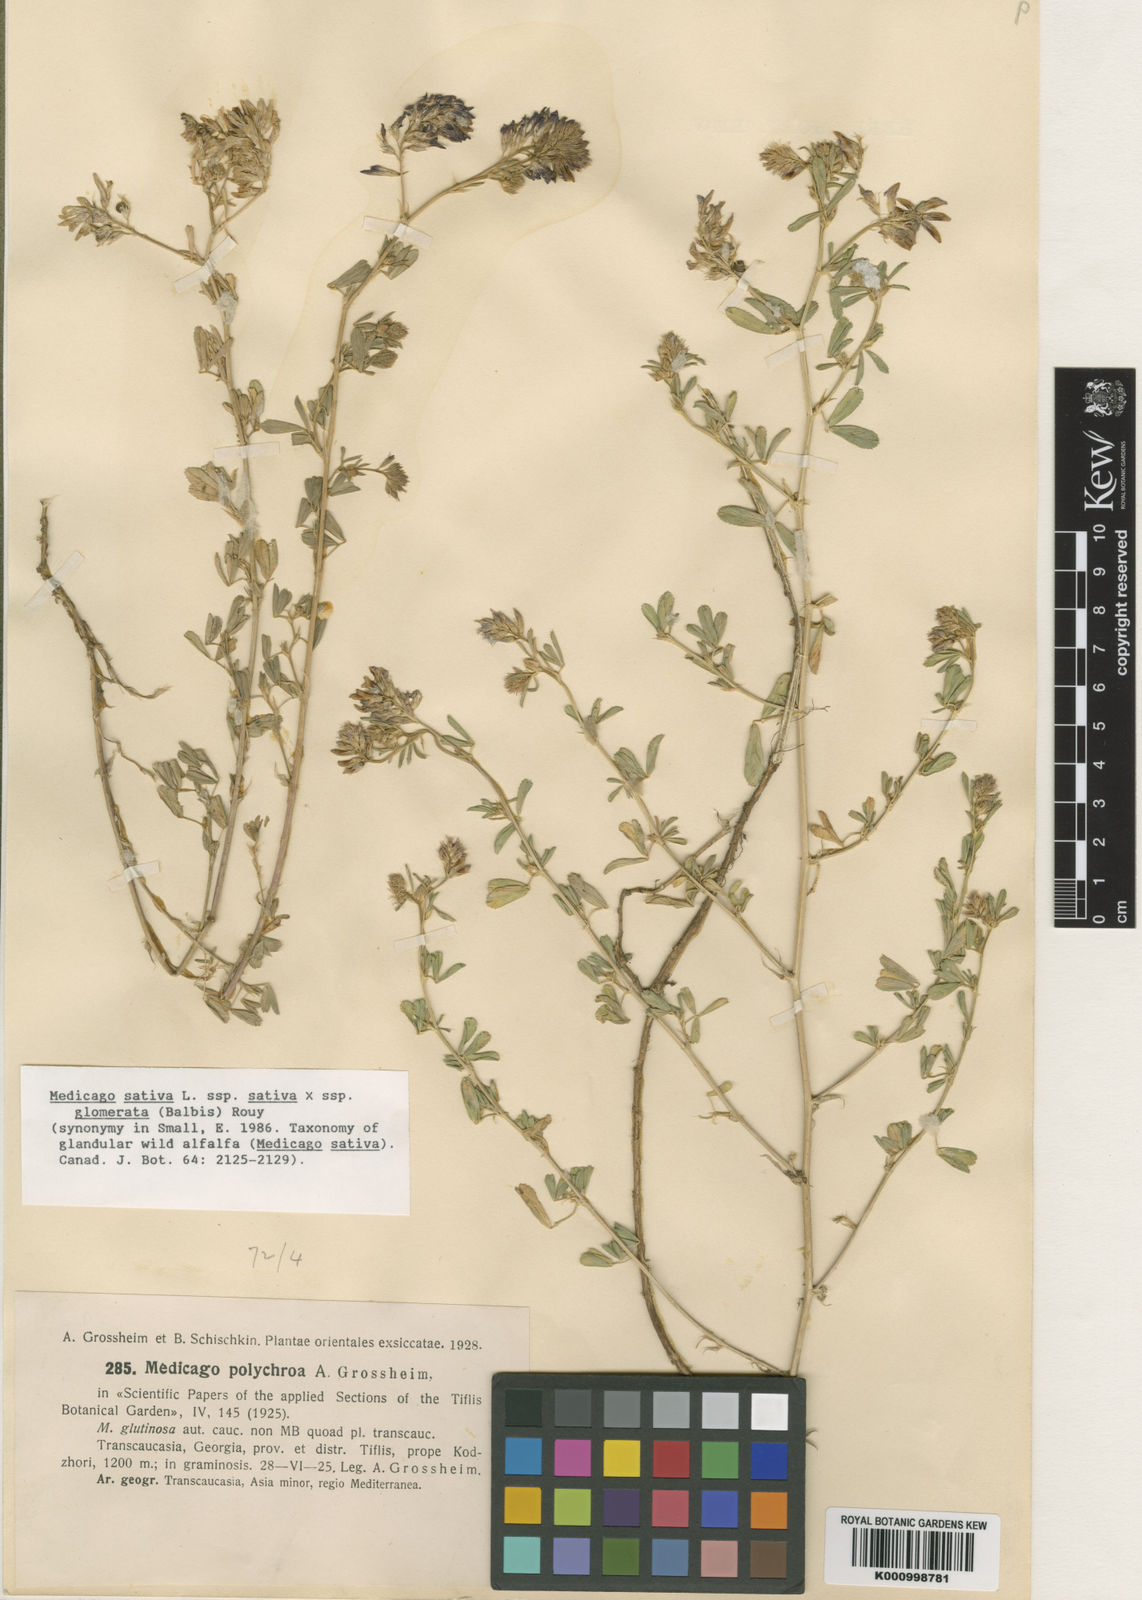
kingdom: Plantae
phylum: Tracheophyta
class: Magnoliopsida
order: Fabales
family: Fabaceae
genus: Medicago
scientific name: Medicago sativa
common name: Alfalfa
